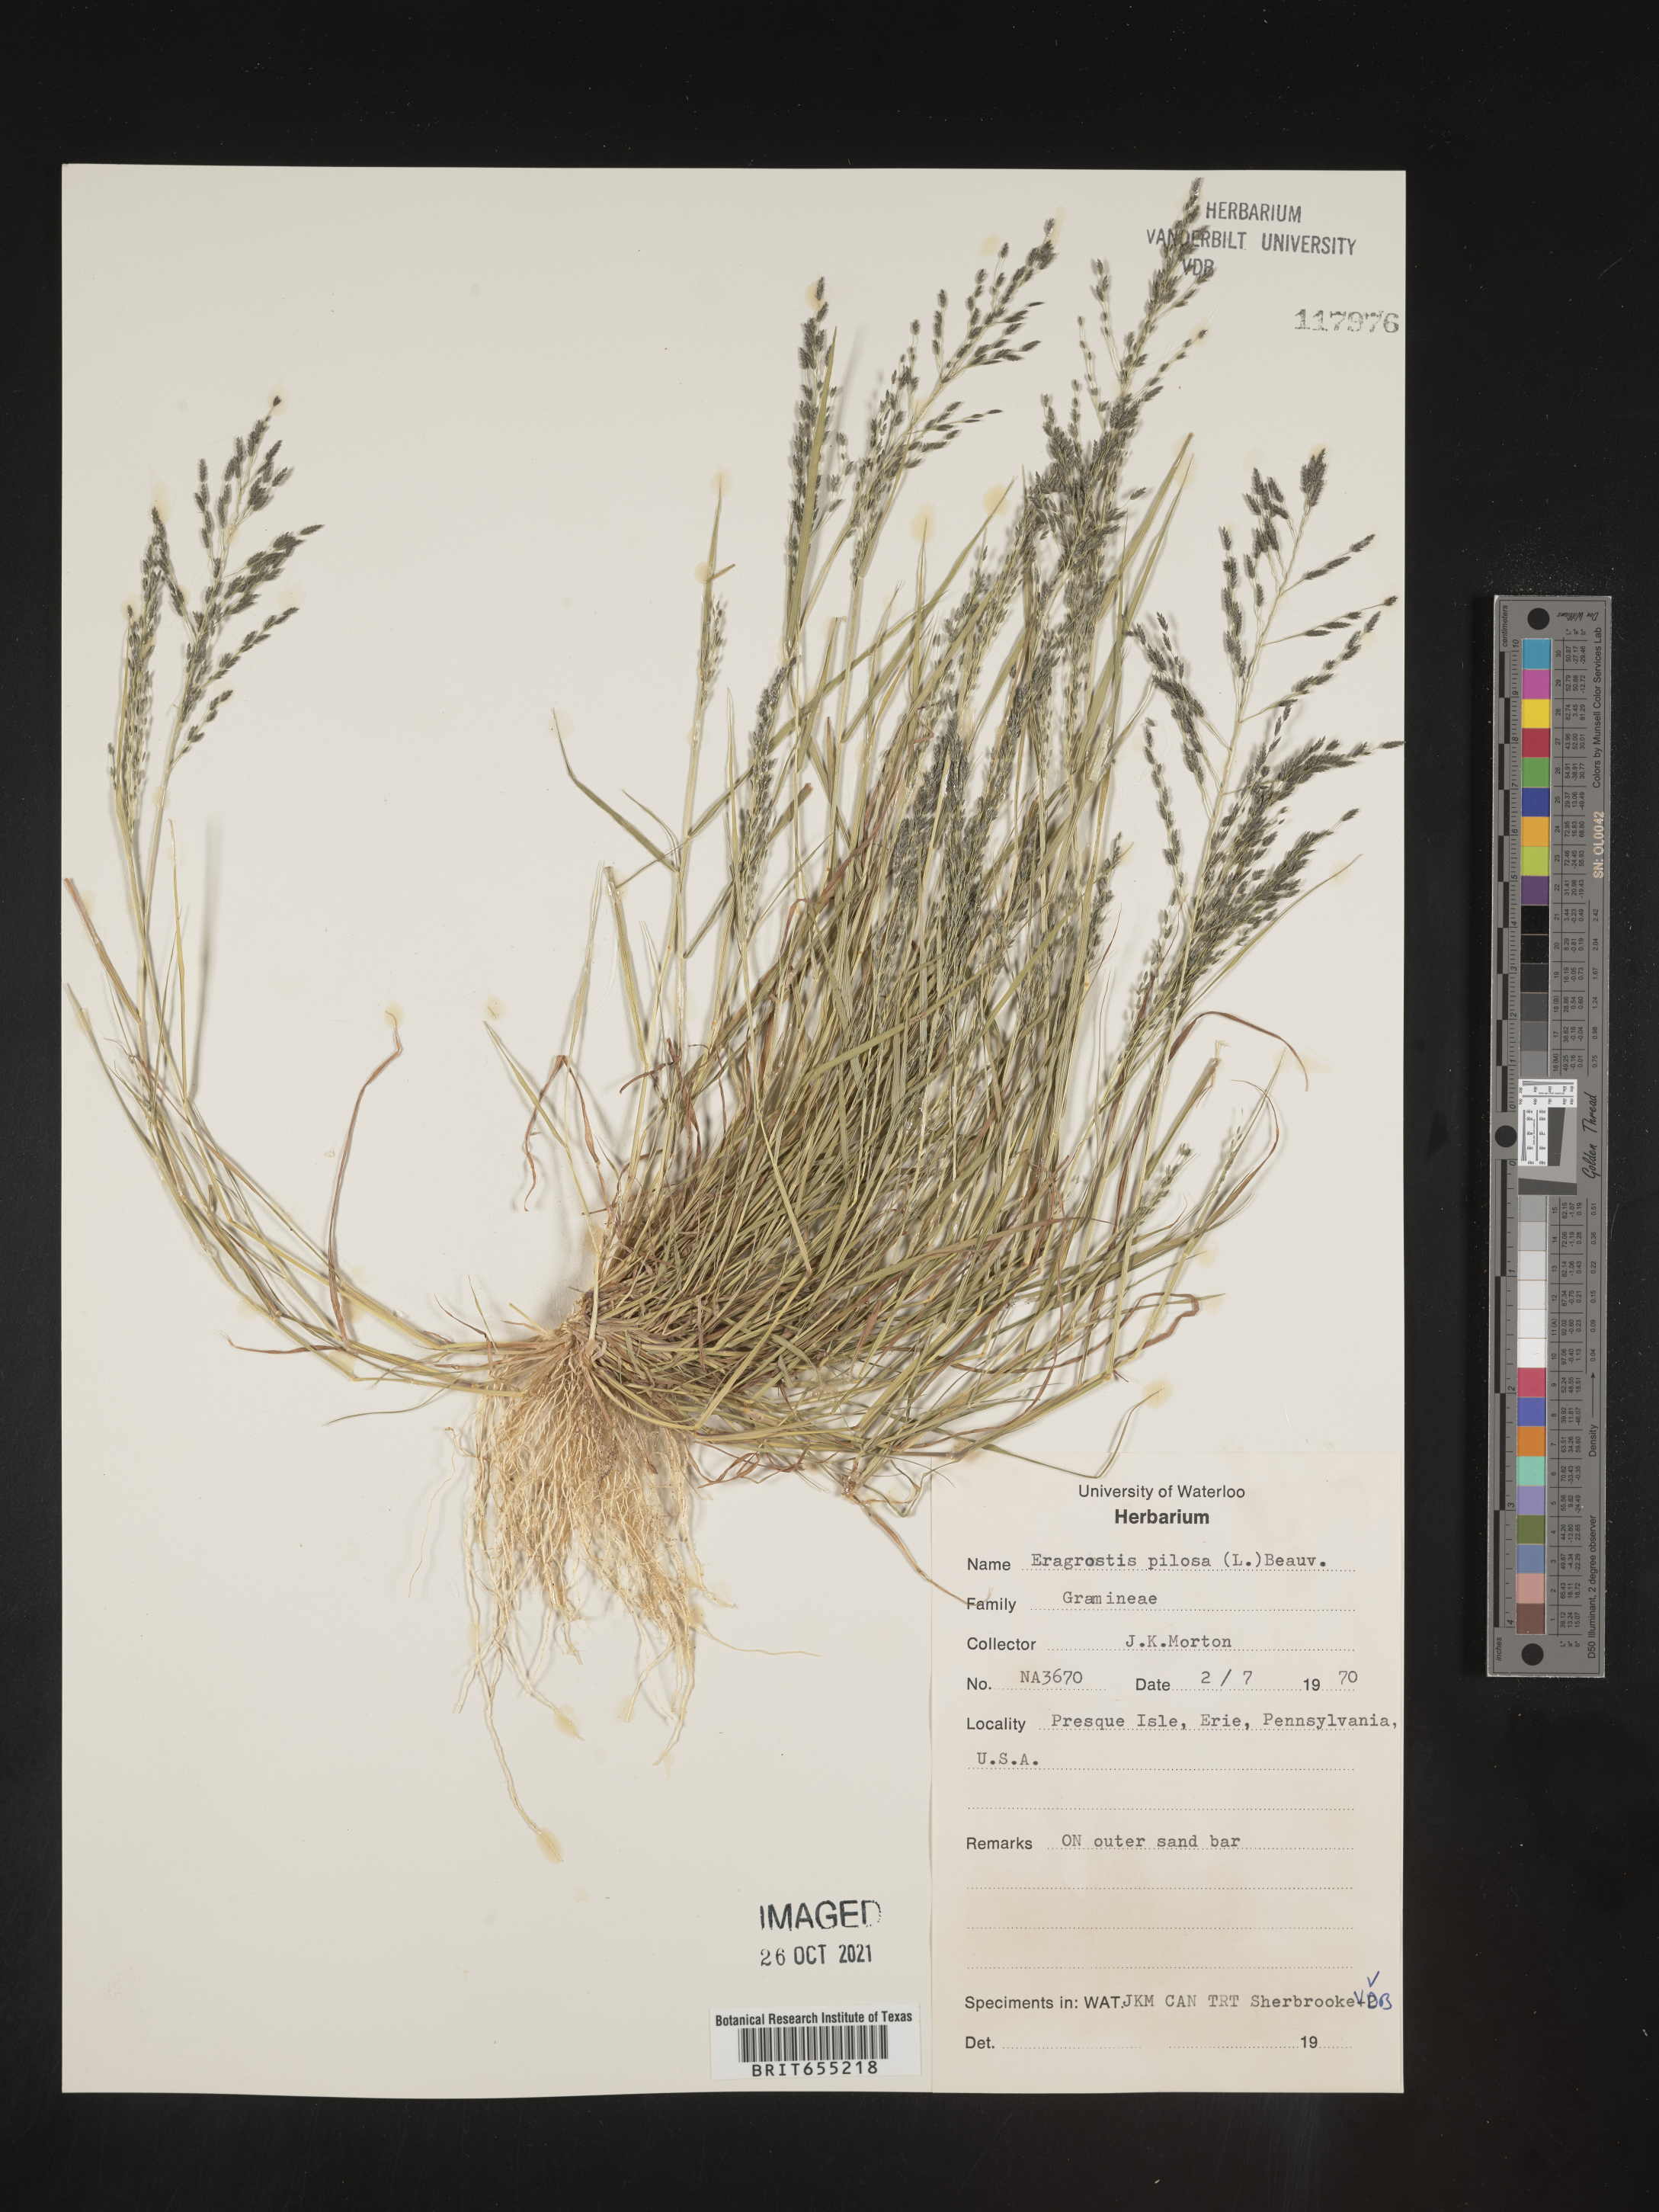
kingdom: Plantae
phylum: Tracheophyta
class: Liliopsida
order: Poales
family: Poaceae
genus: Eragrostis
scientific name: Eragrostis
